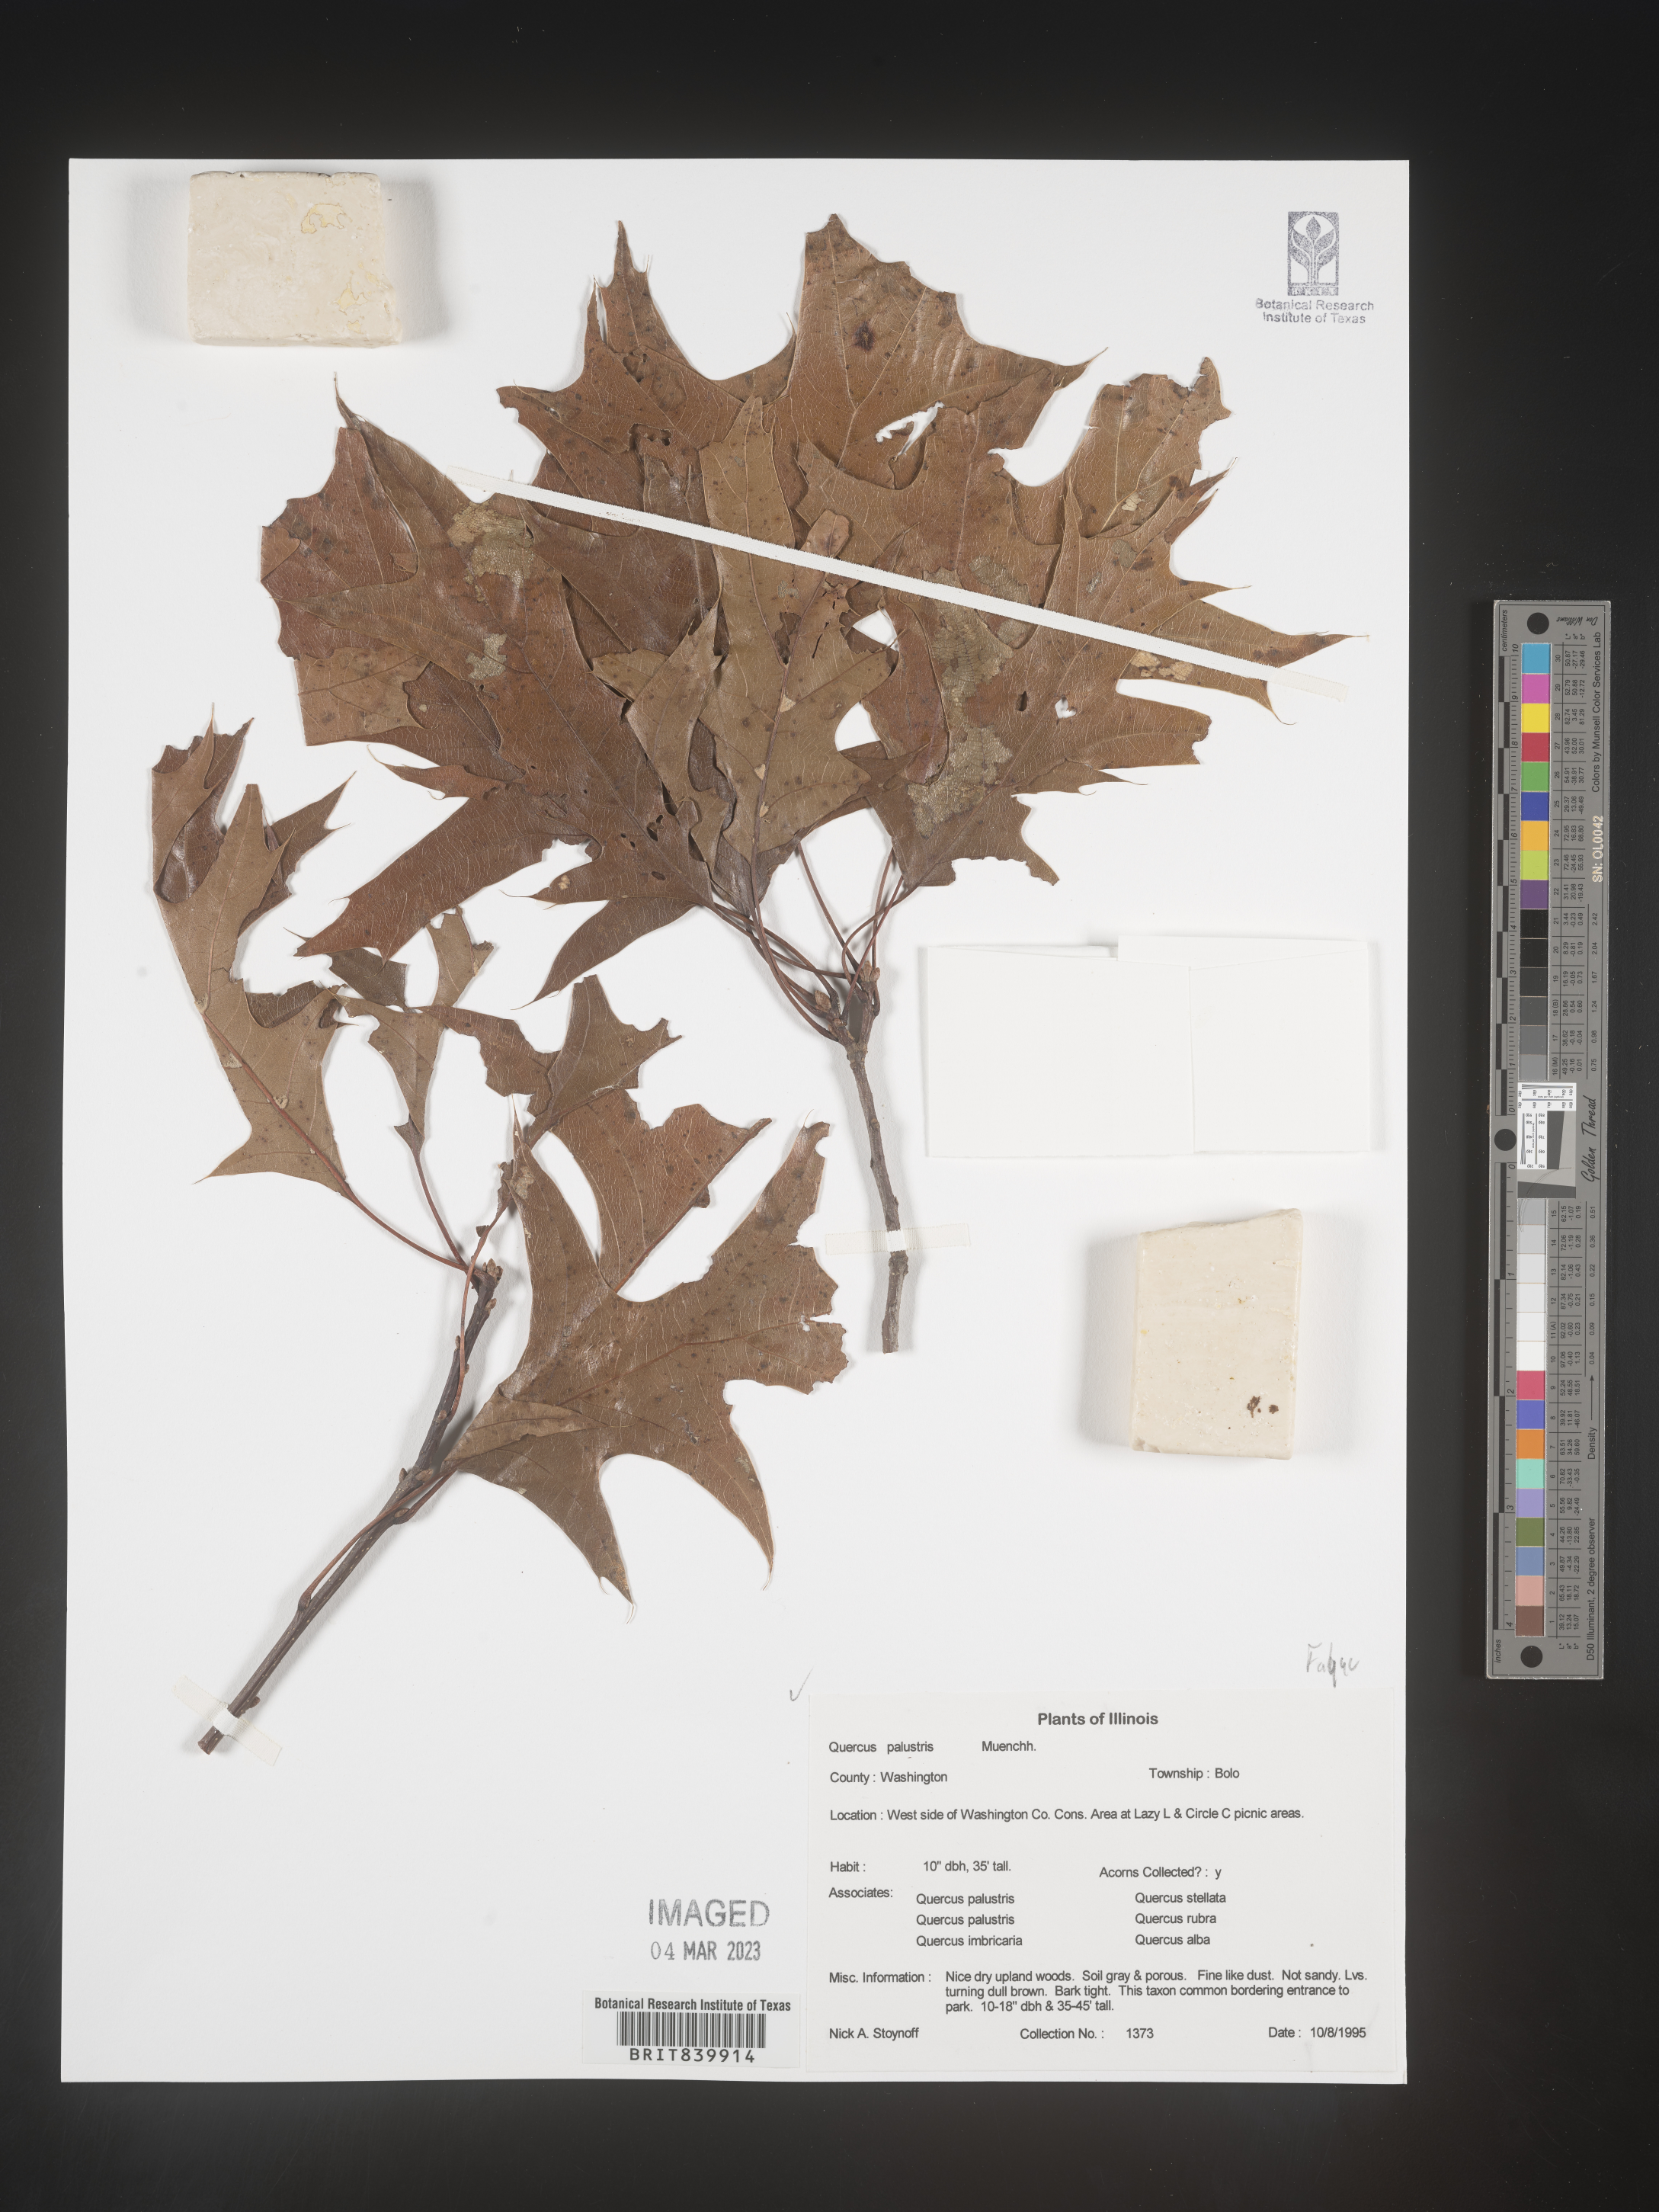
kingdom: Plantae
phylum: Tracheophyta
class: Magnoliopsida
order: Fagales
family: Fagaceae
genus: Quercus
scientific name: Quercus palustris
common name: Pin oak
